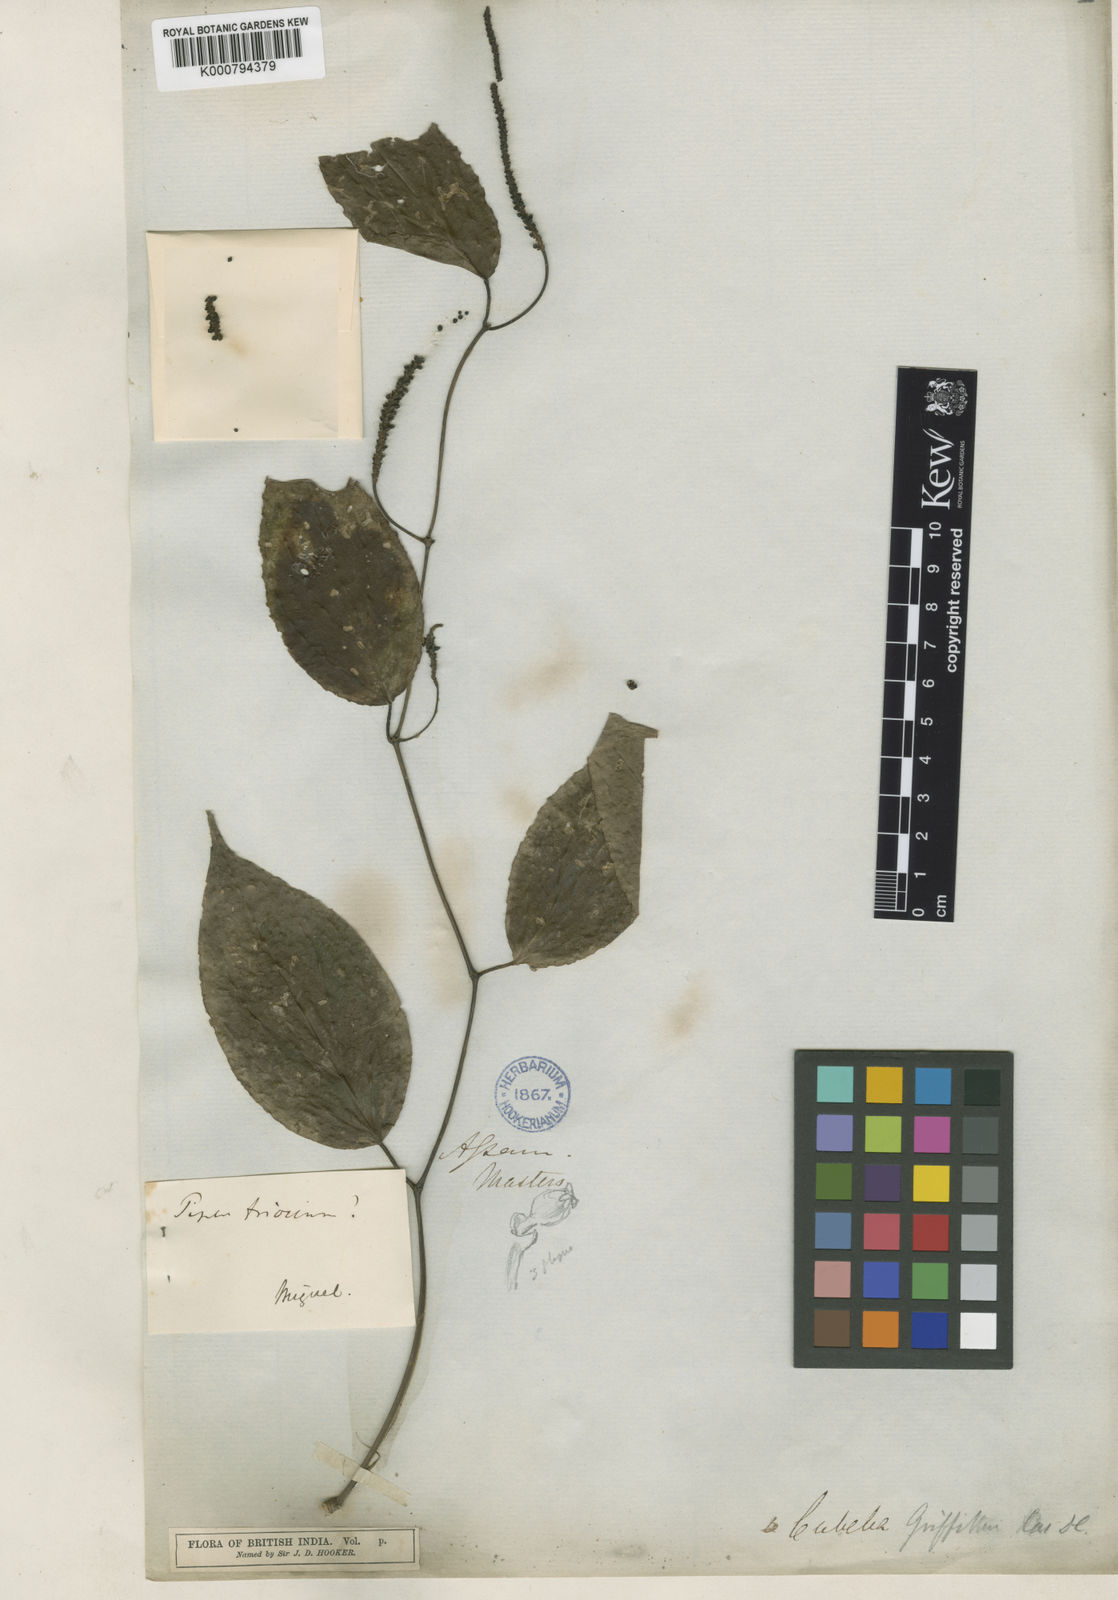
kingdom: Plantae
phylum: Tracheophyta
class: Magnoliopsida
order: Piperales
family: Piperaceae
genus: Piper
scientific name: Piper griffithii
